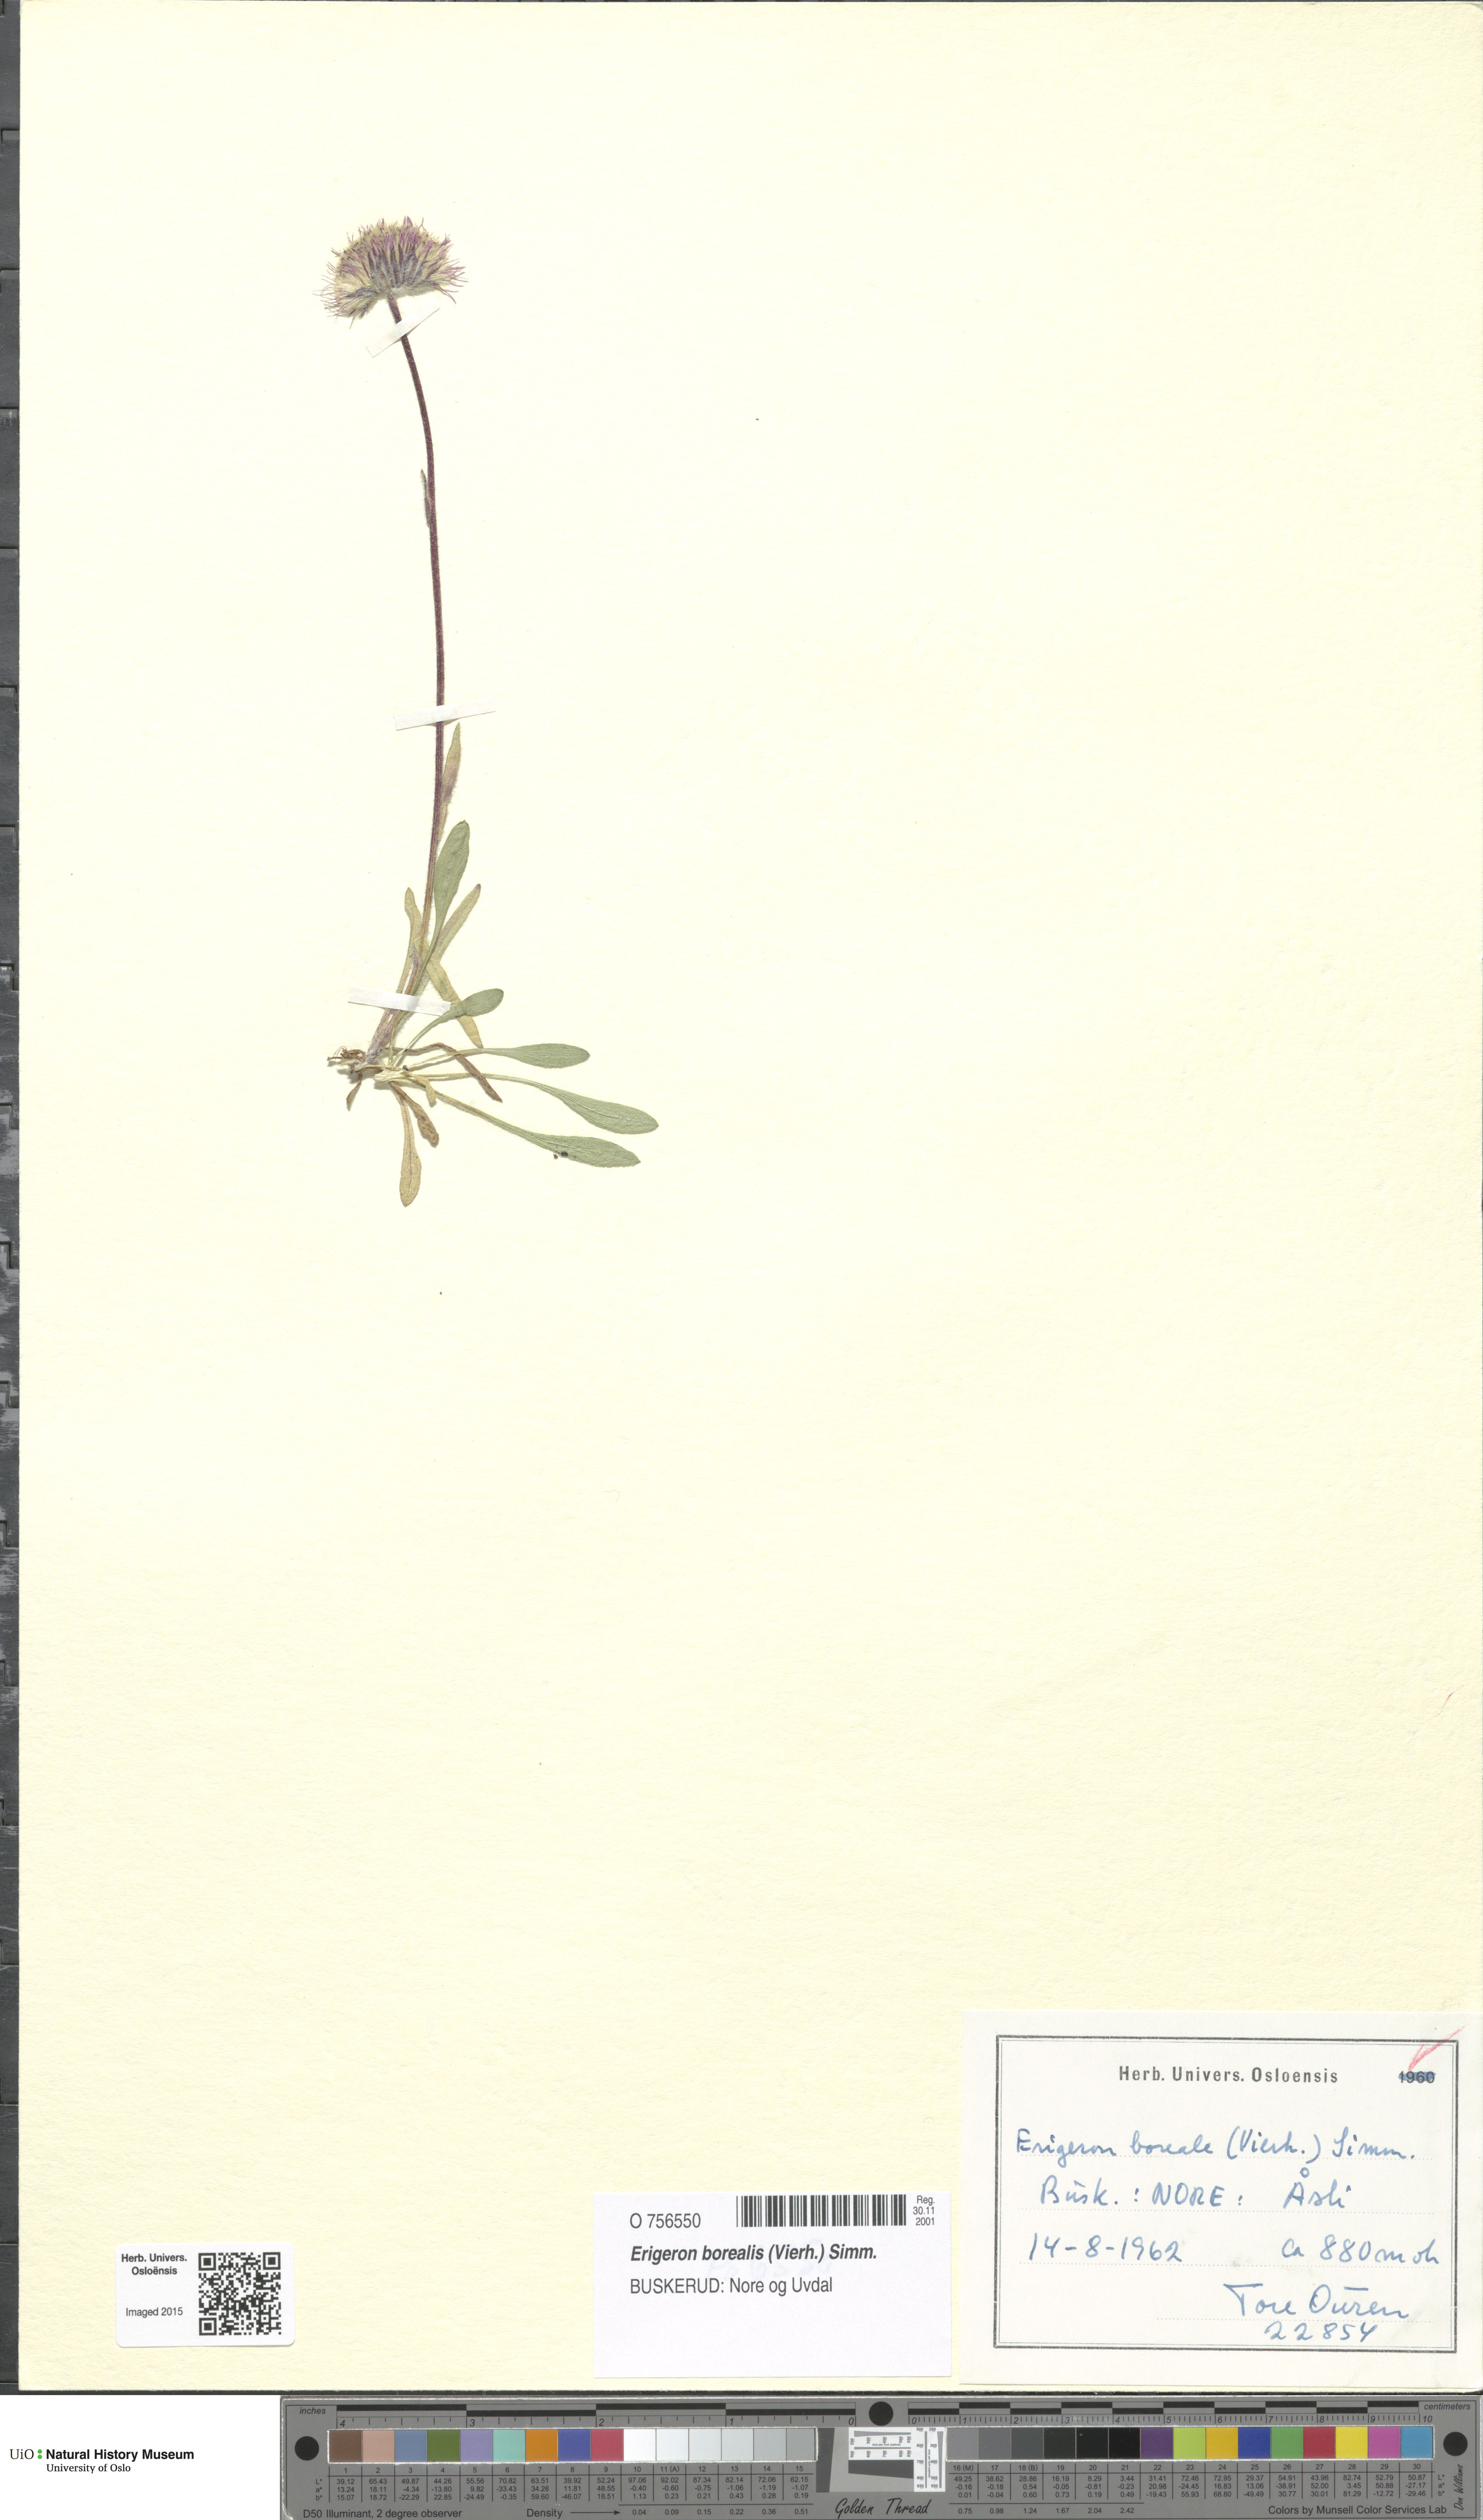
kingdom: Plantae
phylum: Tracheophyta
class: Magnoliopsida
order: Asterales
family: Asteraceae
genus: Erigeron
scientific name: Erigeron borealis
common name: Alpine fleabane
